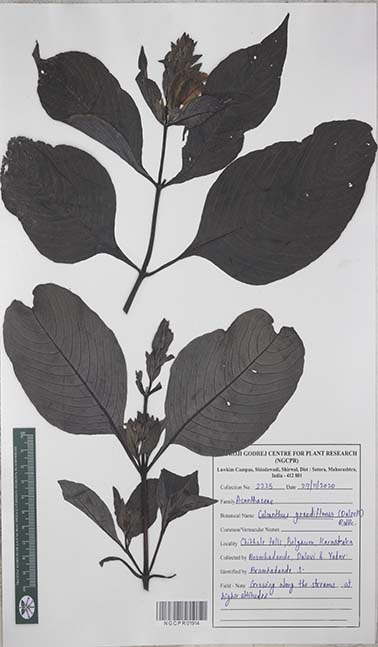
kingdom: Plantae
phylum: Tracheophyta
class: Magnoliopsida
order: Lamiales
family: Acanthaceae
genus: Calacanthus
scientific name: Calacanthus grandiflorus
